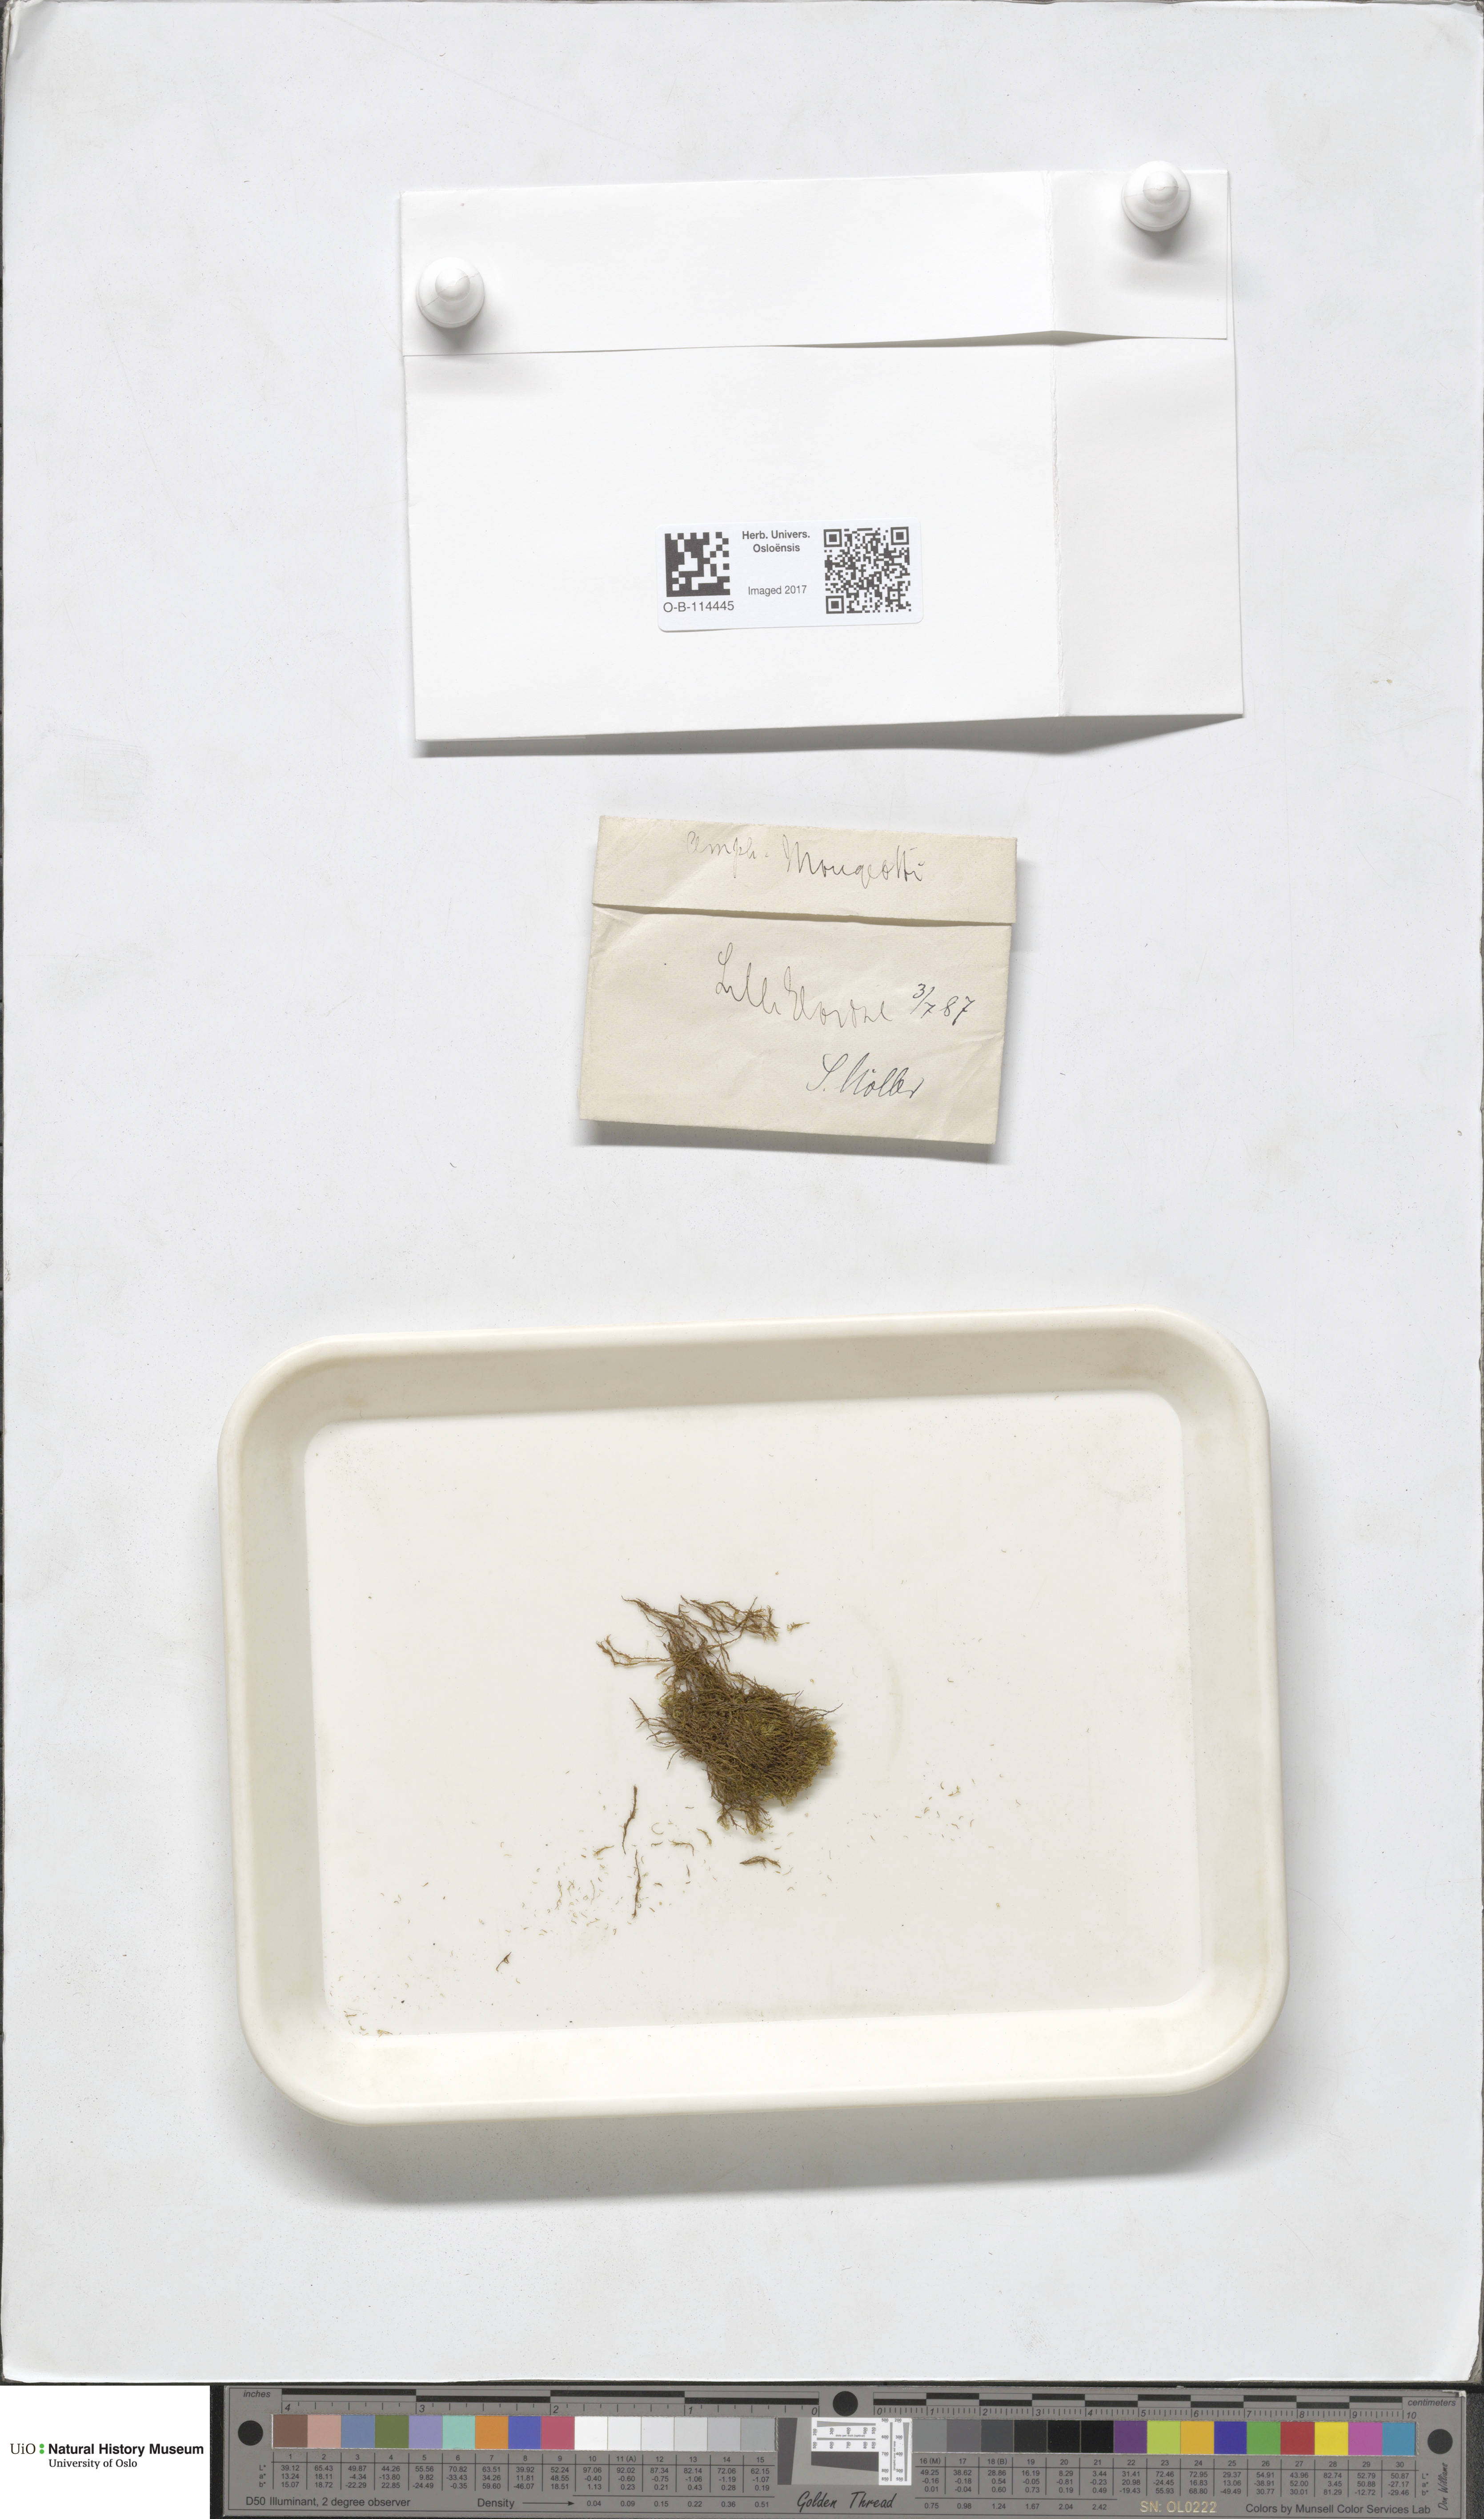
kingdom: Plantae
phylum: Bryophyta
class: Bryopsida
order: Dicranales
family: Amphidiaceae
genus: Amphidium
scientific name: Amphidium mougeotii
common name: Mougeot's yoke moss
